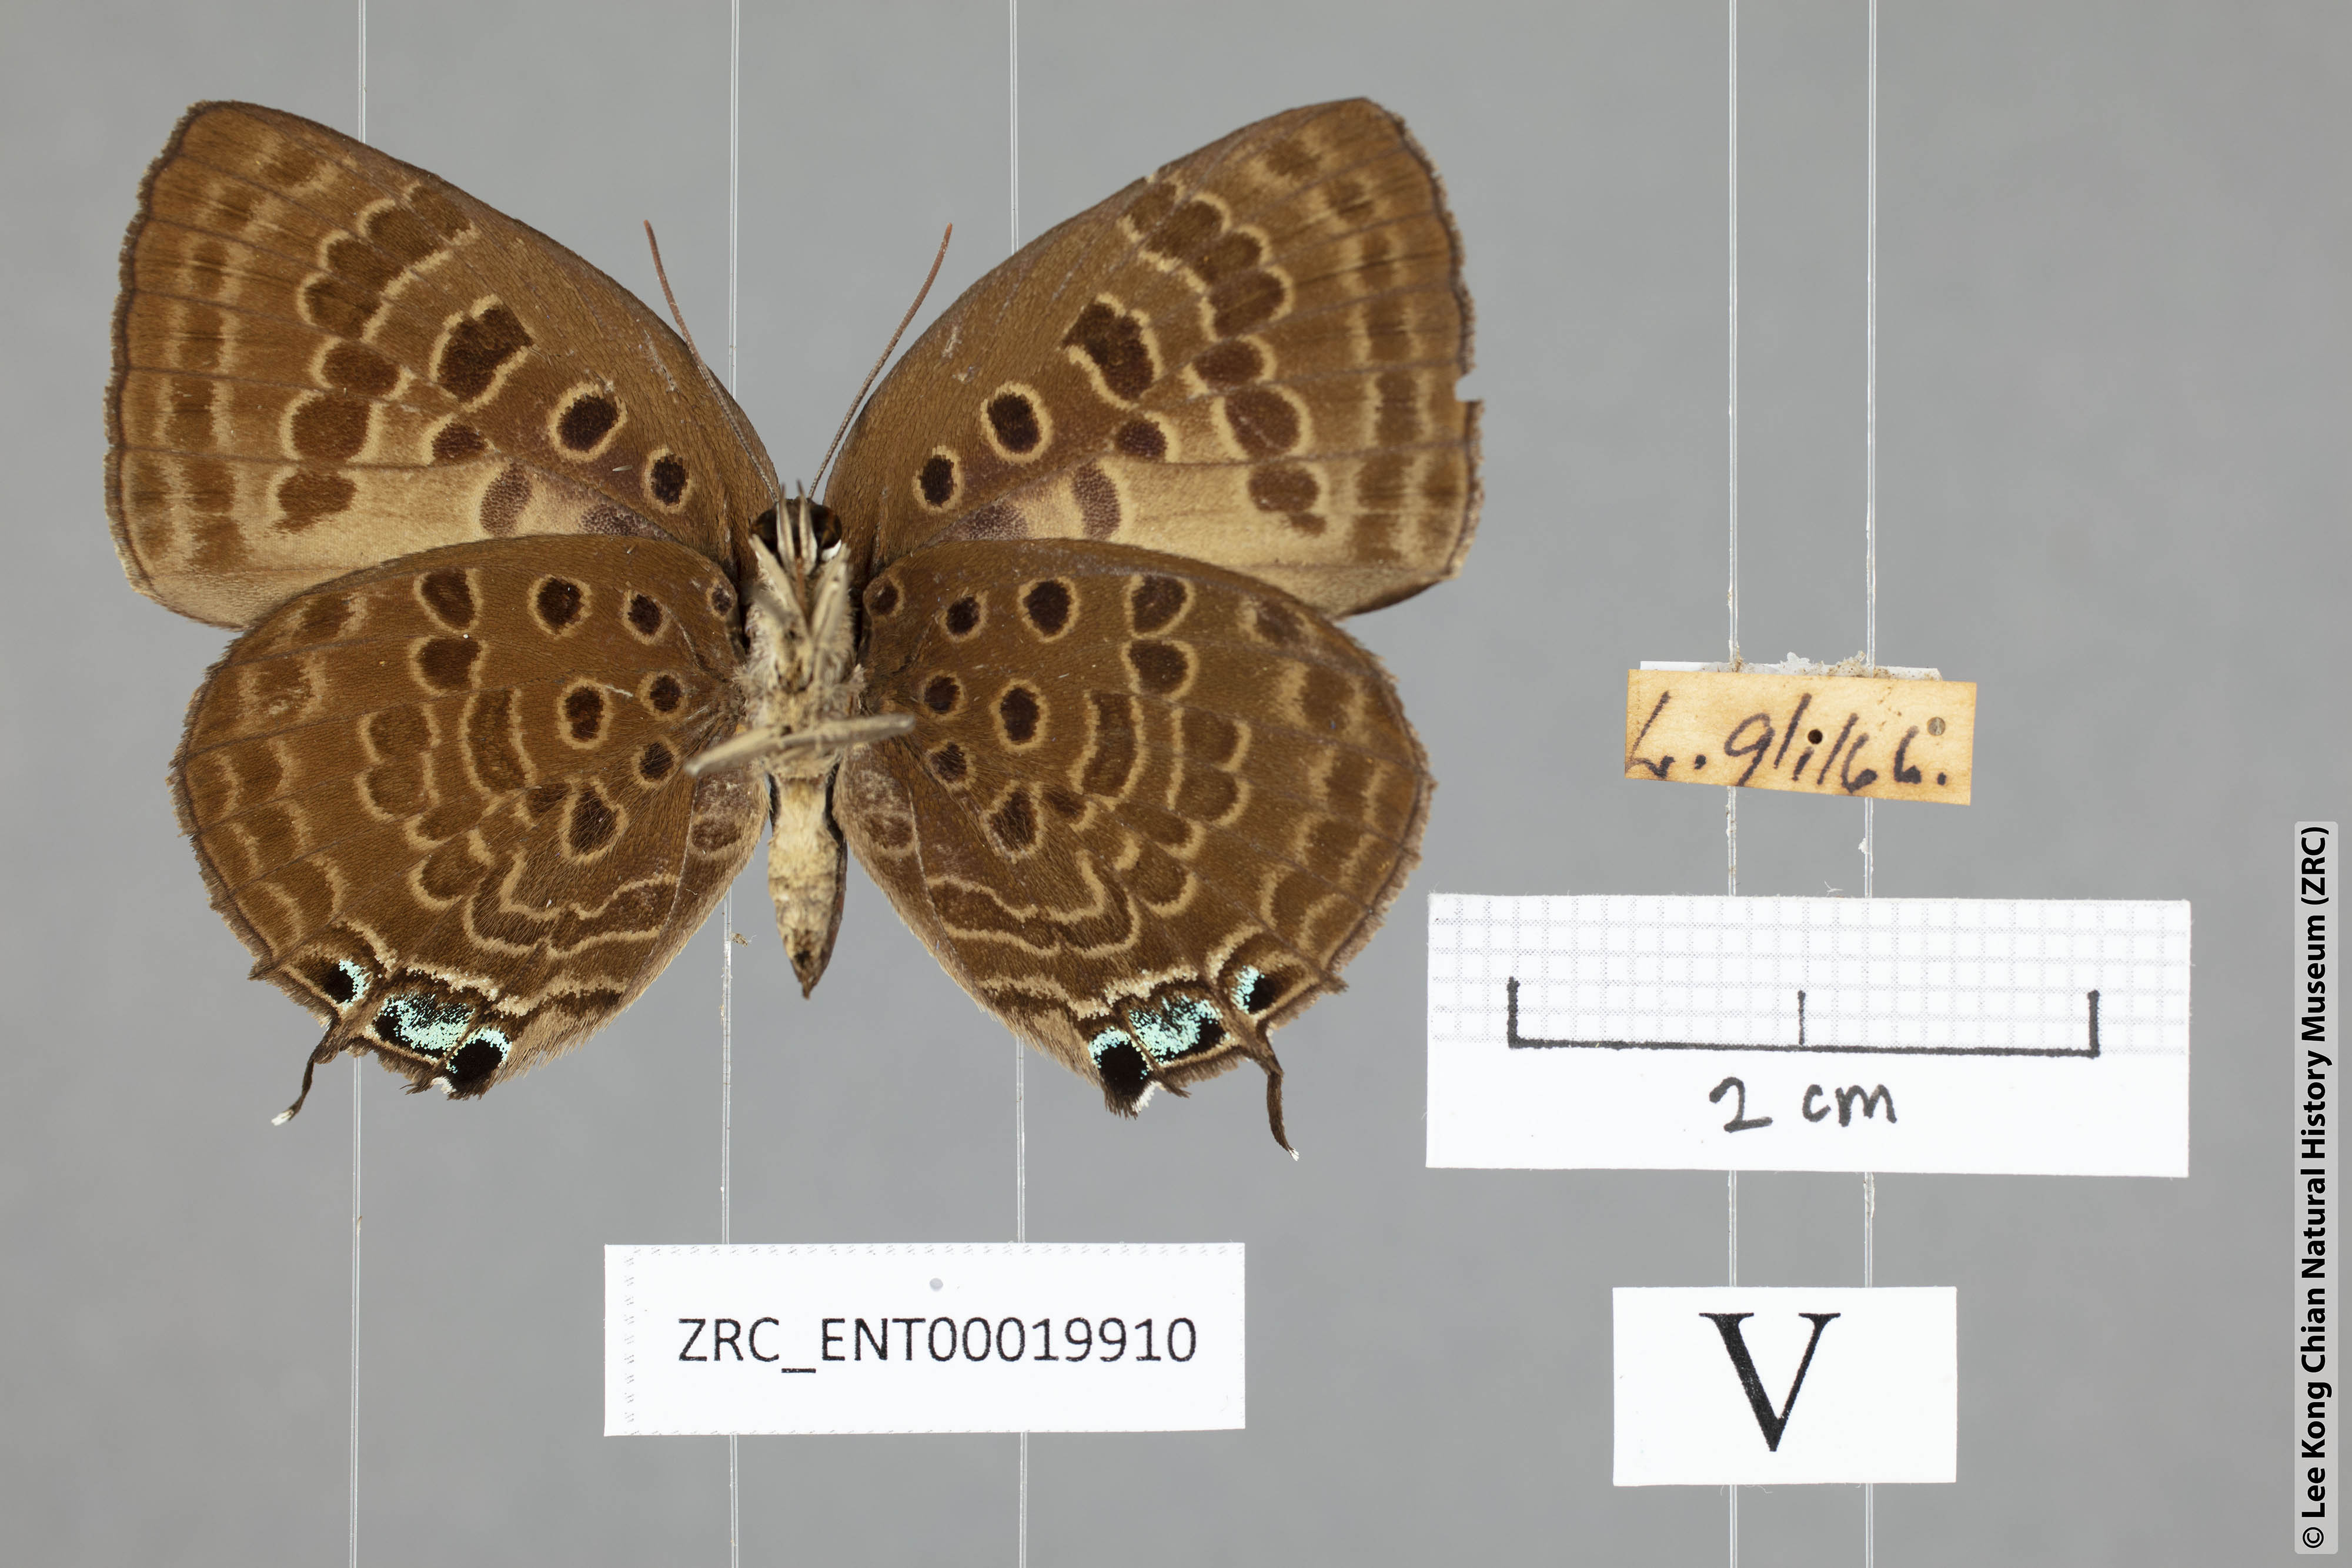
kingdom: Animalia
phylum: Arthropoda
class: Insecta
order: Lepidoptera
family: Lycaenidae
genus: Arhopala
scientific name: Arhopala vihara
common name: Large spotted oakblue
